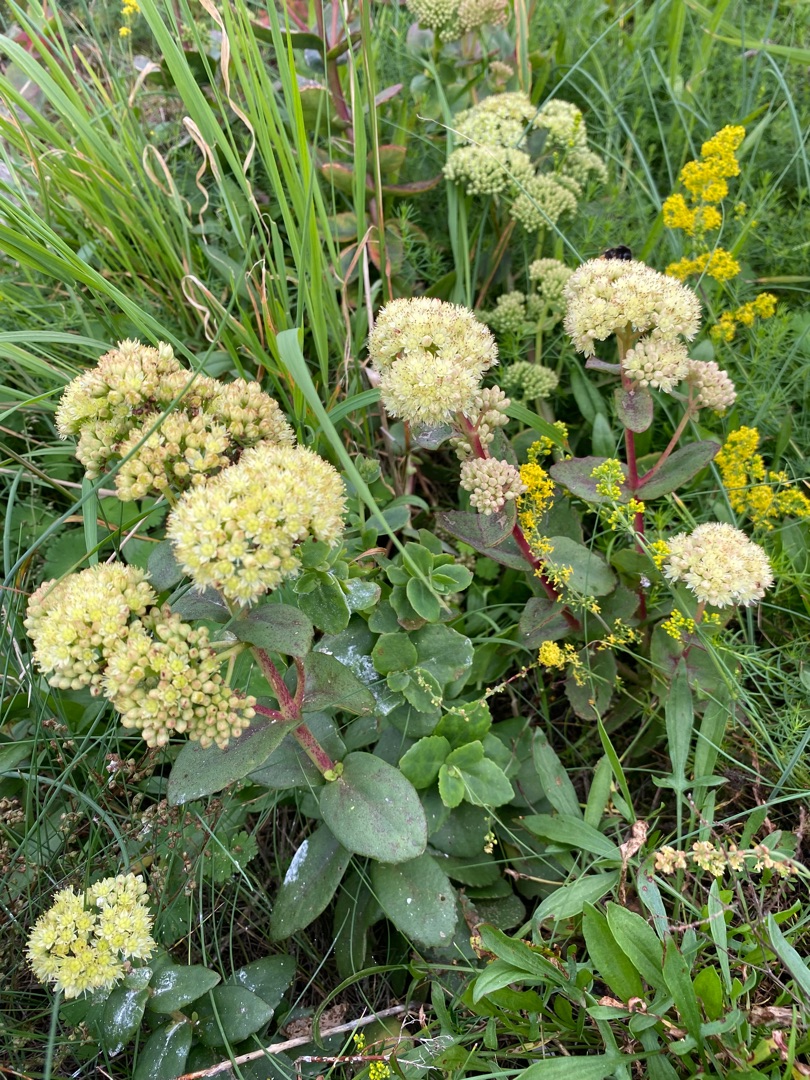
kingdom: Plantae
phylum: Tracheophyta
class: Magnoliopsida
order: Saxifragales
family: Crassulaceae
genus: Hylotelephium
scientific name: Hylotelephium maximum
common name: Almindelig sankthansurt
